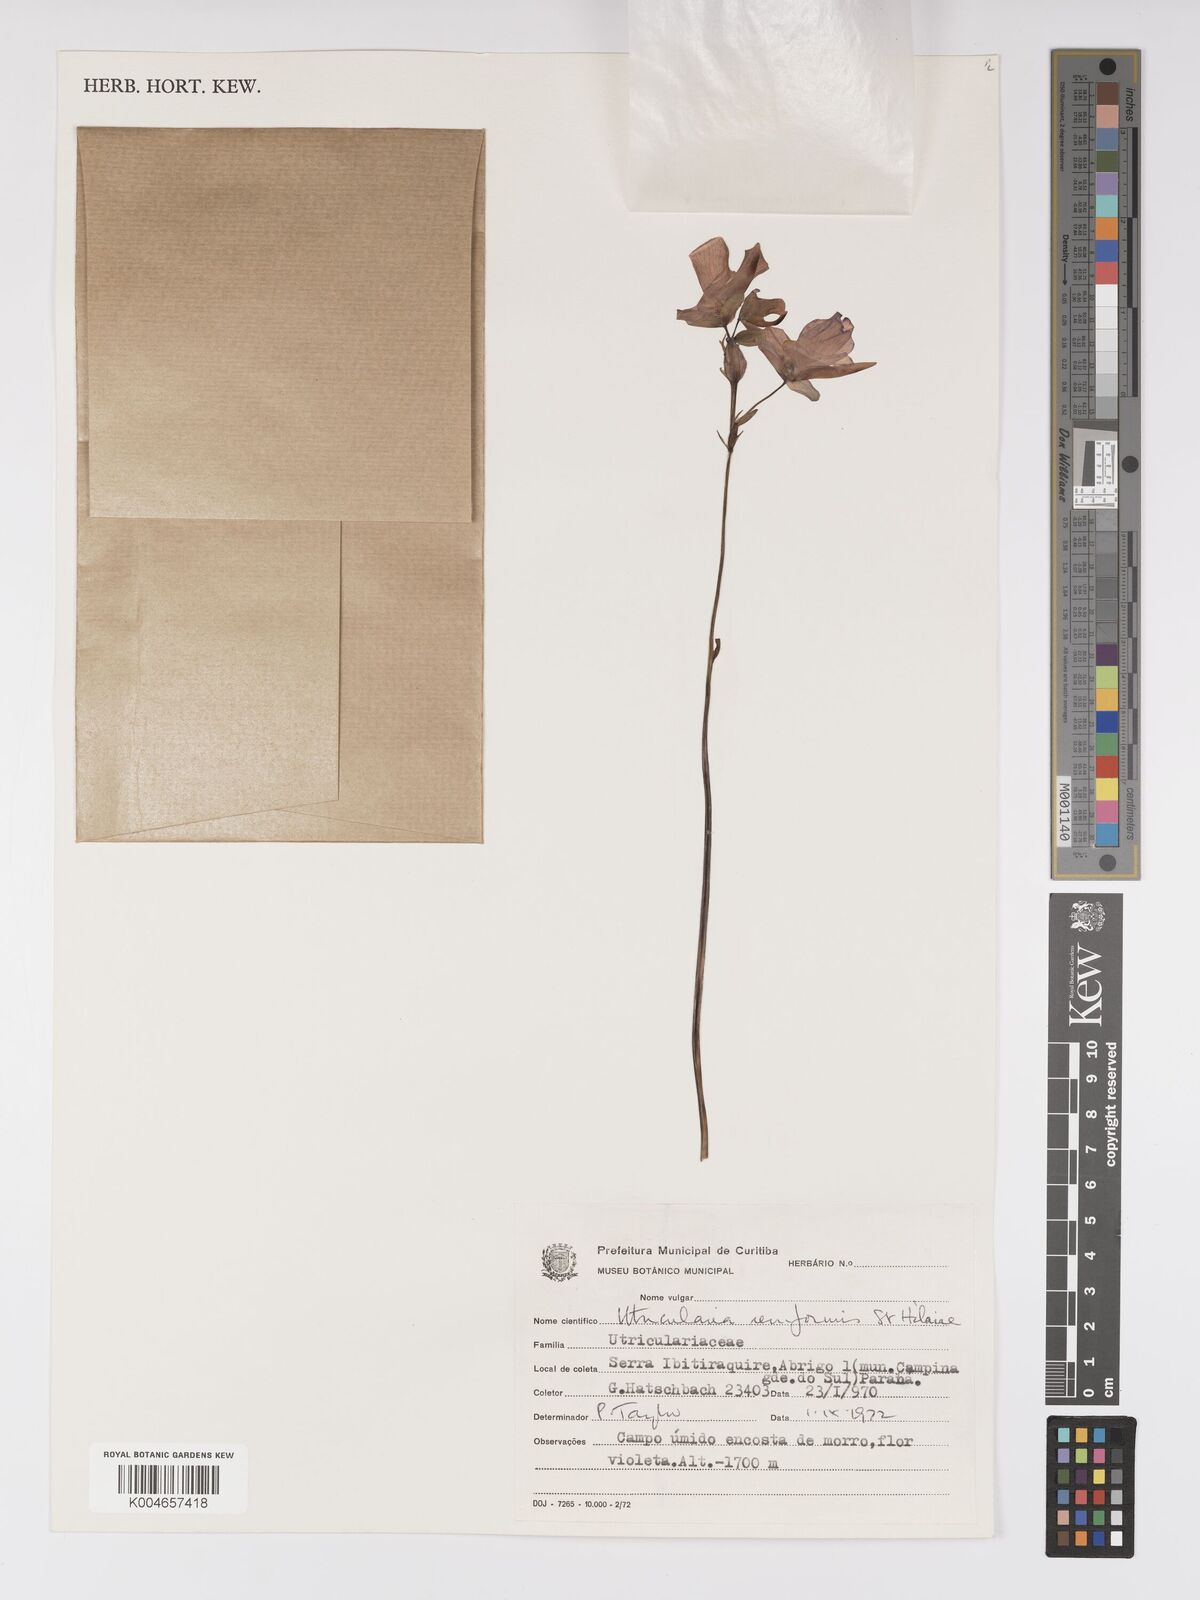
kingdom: Plantae
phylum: Tracheophyta
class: Magnoliopsida
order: Lamiales
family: Lentibulariaceae
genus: Utricularia
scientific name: Utricularia reniformis
